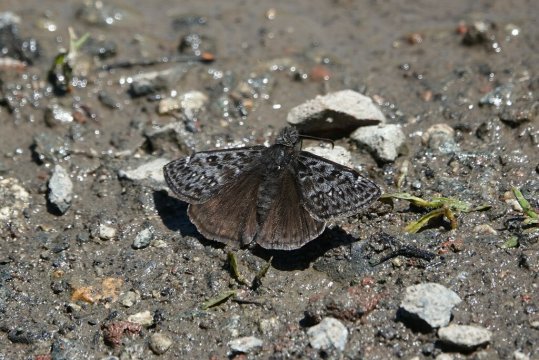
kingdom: Animalia
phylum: Arthropoda
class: Insecta
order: Lepidoptera
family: Hesperiidae
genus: Erynnis
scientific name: Erynnis propertius
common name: Propertius Duskywing
